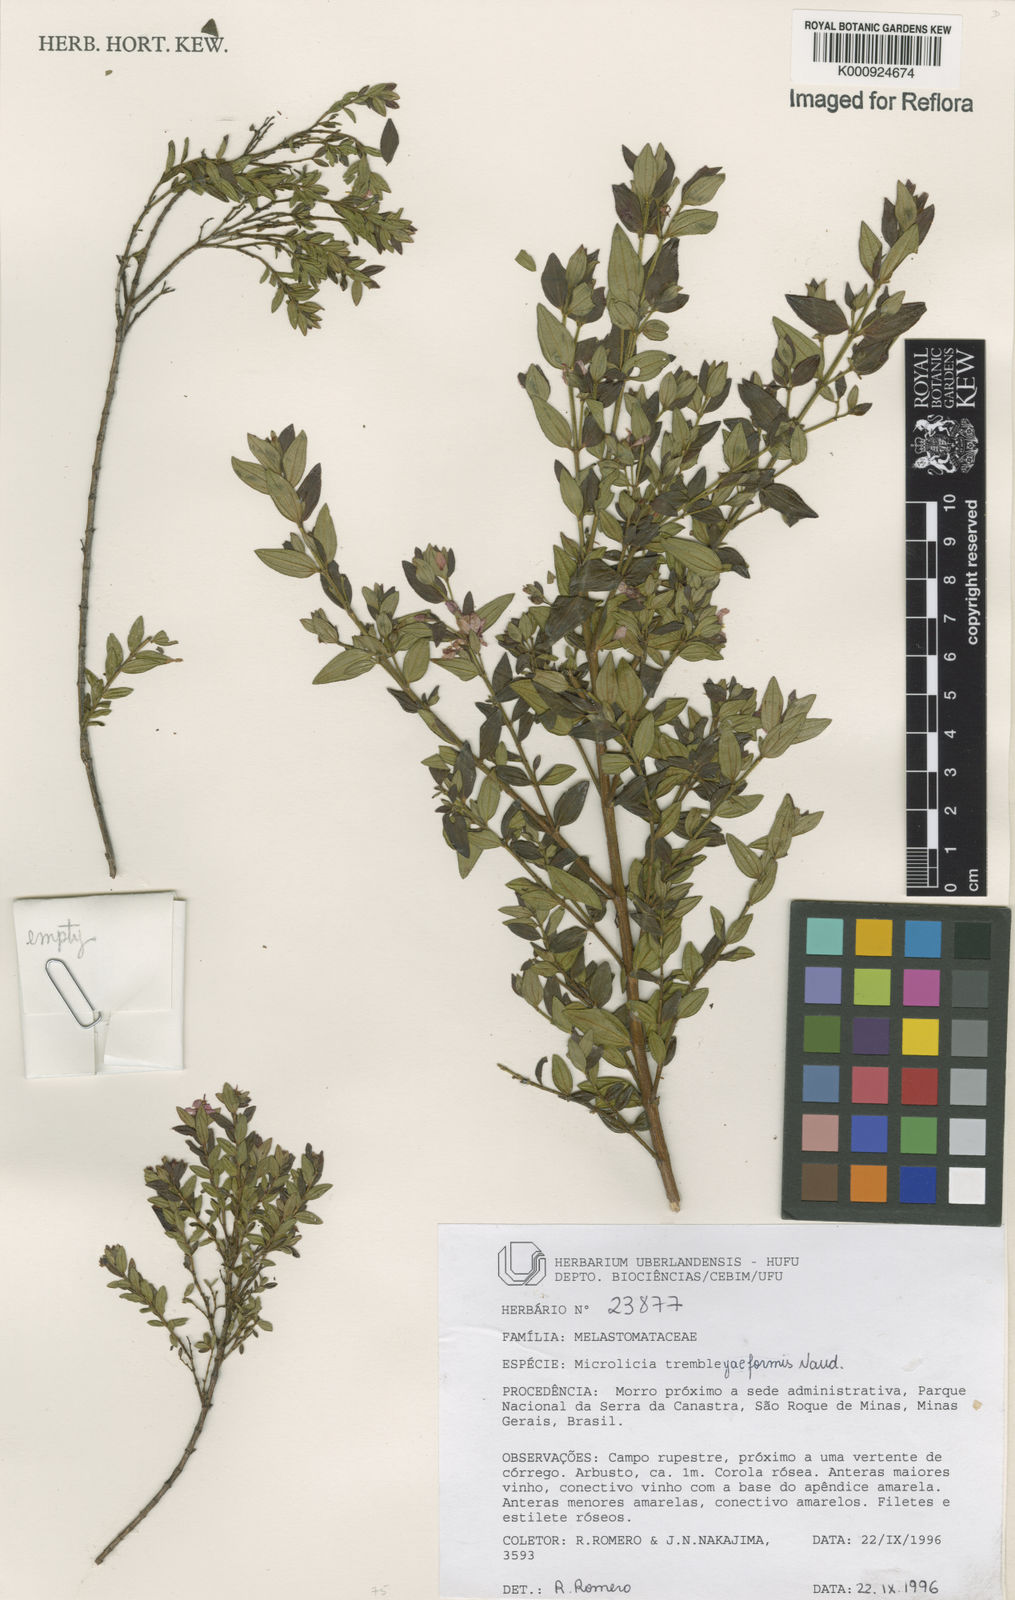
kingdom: Plantae
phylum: Tracheophyta
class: Magnoliopsida
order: Myrtales
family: Melastomataceae
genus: Microlicia
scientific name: Microlicia trembleyaeformis
